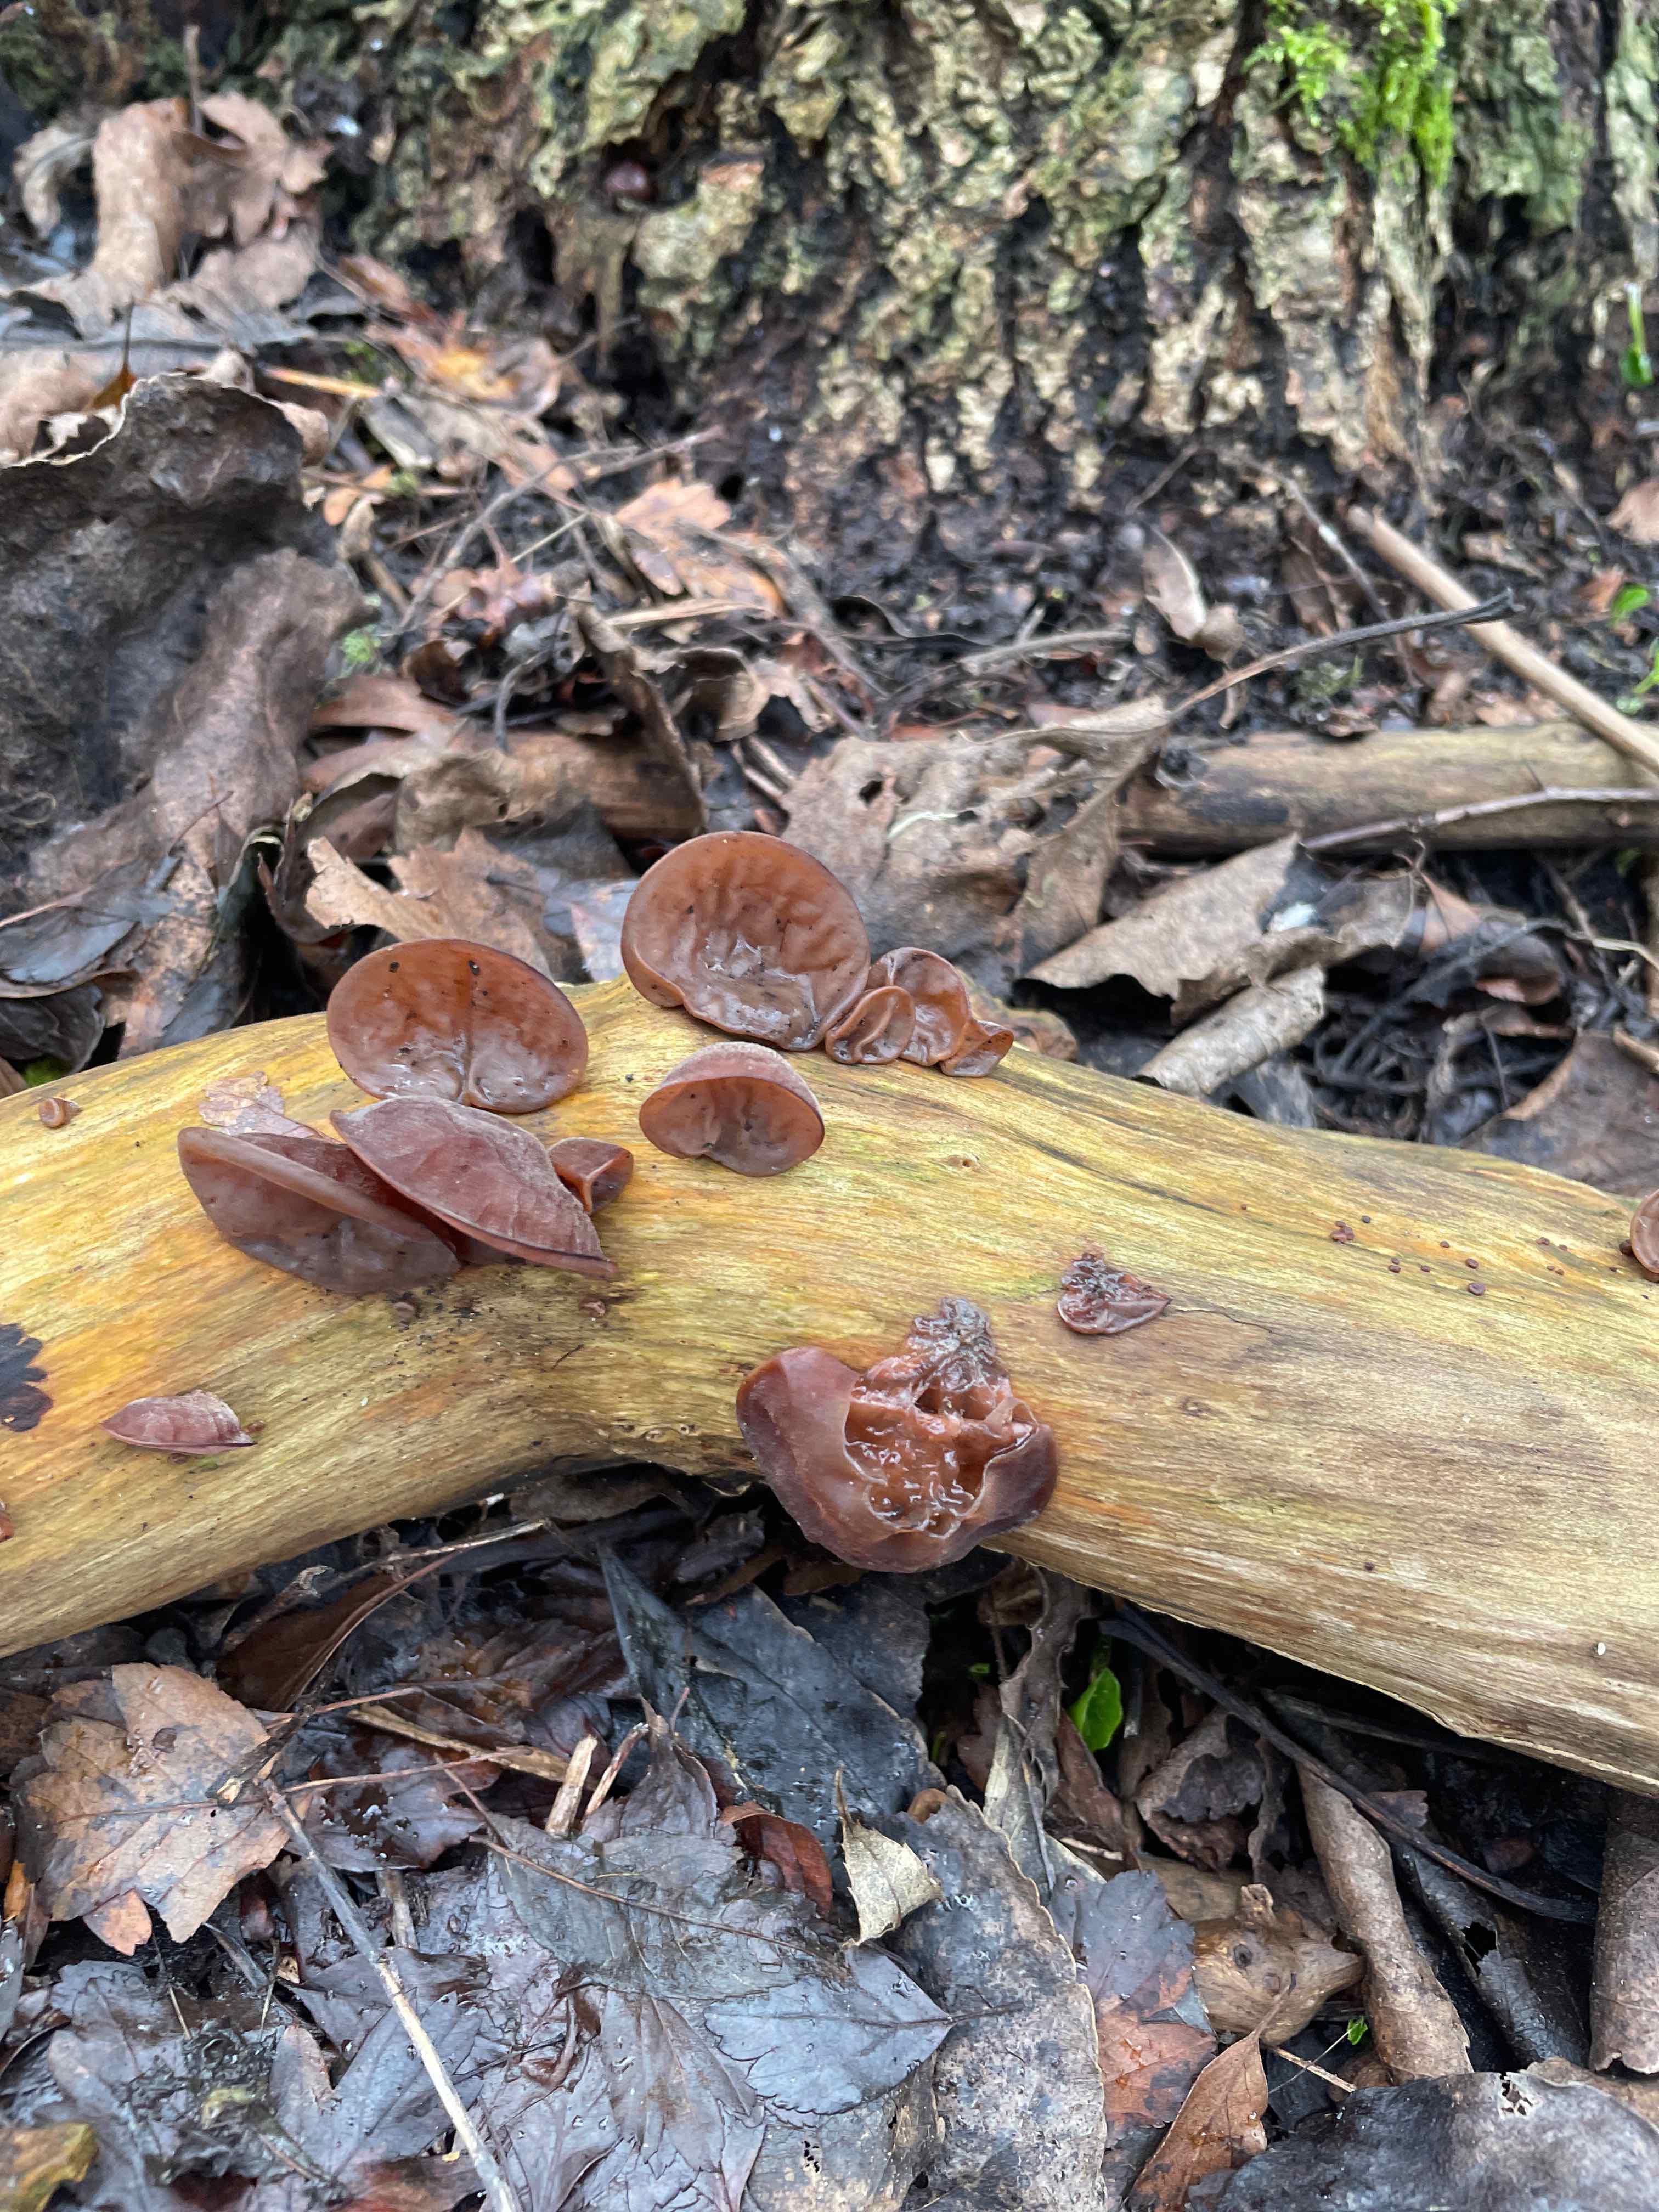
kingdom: Fungi
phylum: Basidiomycota
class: Agaricomycetes
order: Auriculariales
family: Auriculariaceae
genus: Auricularia
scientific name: Auricularia auricula-judae
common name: almindelig judasøre
